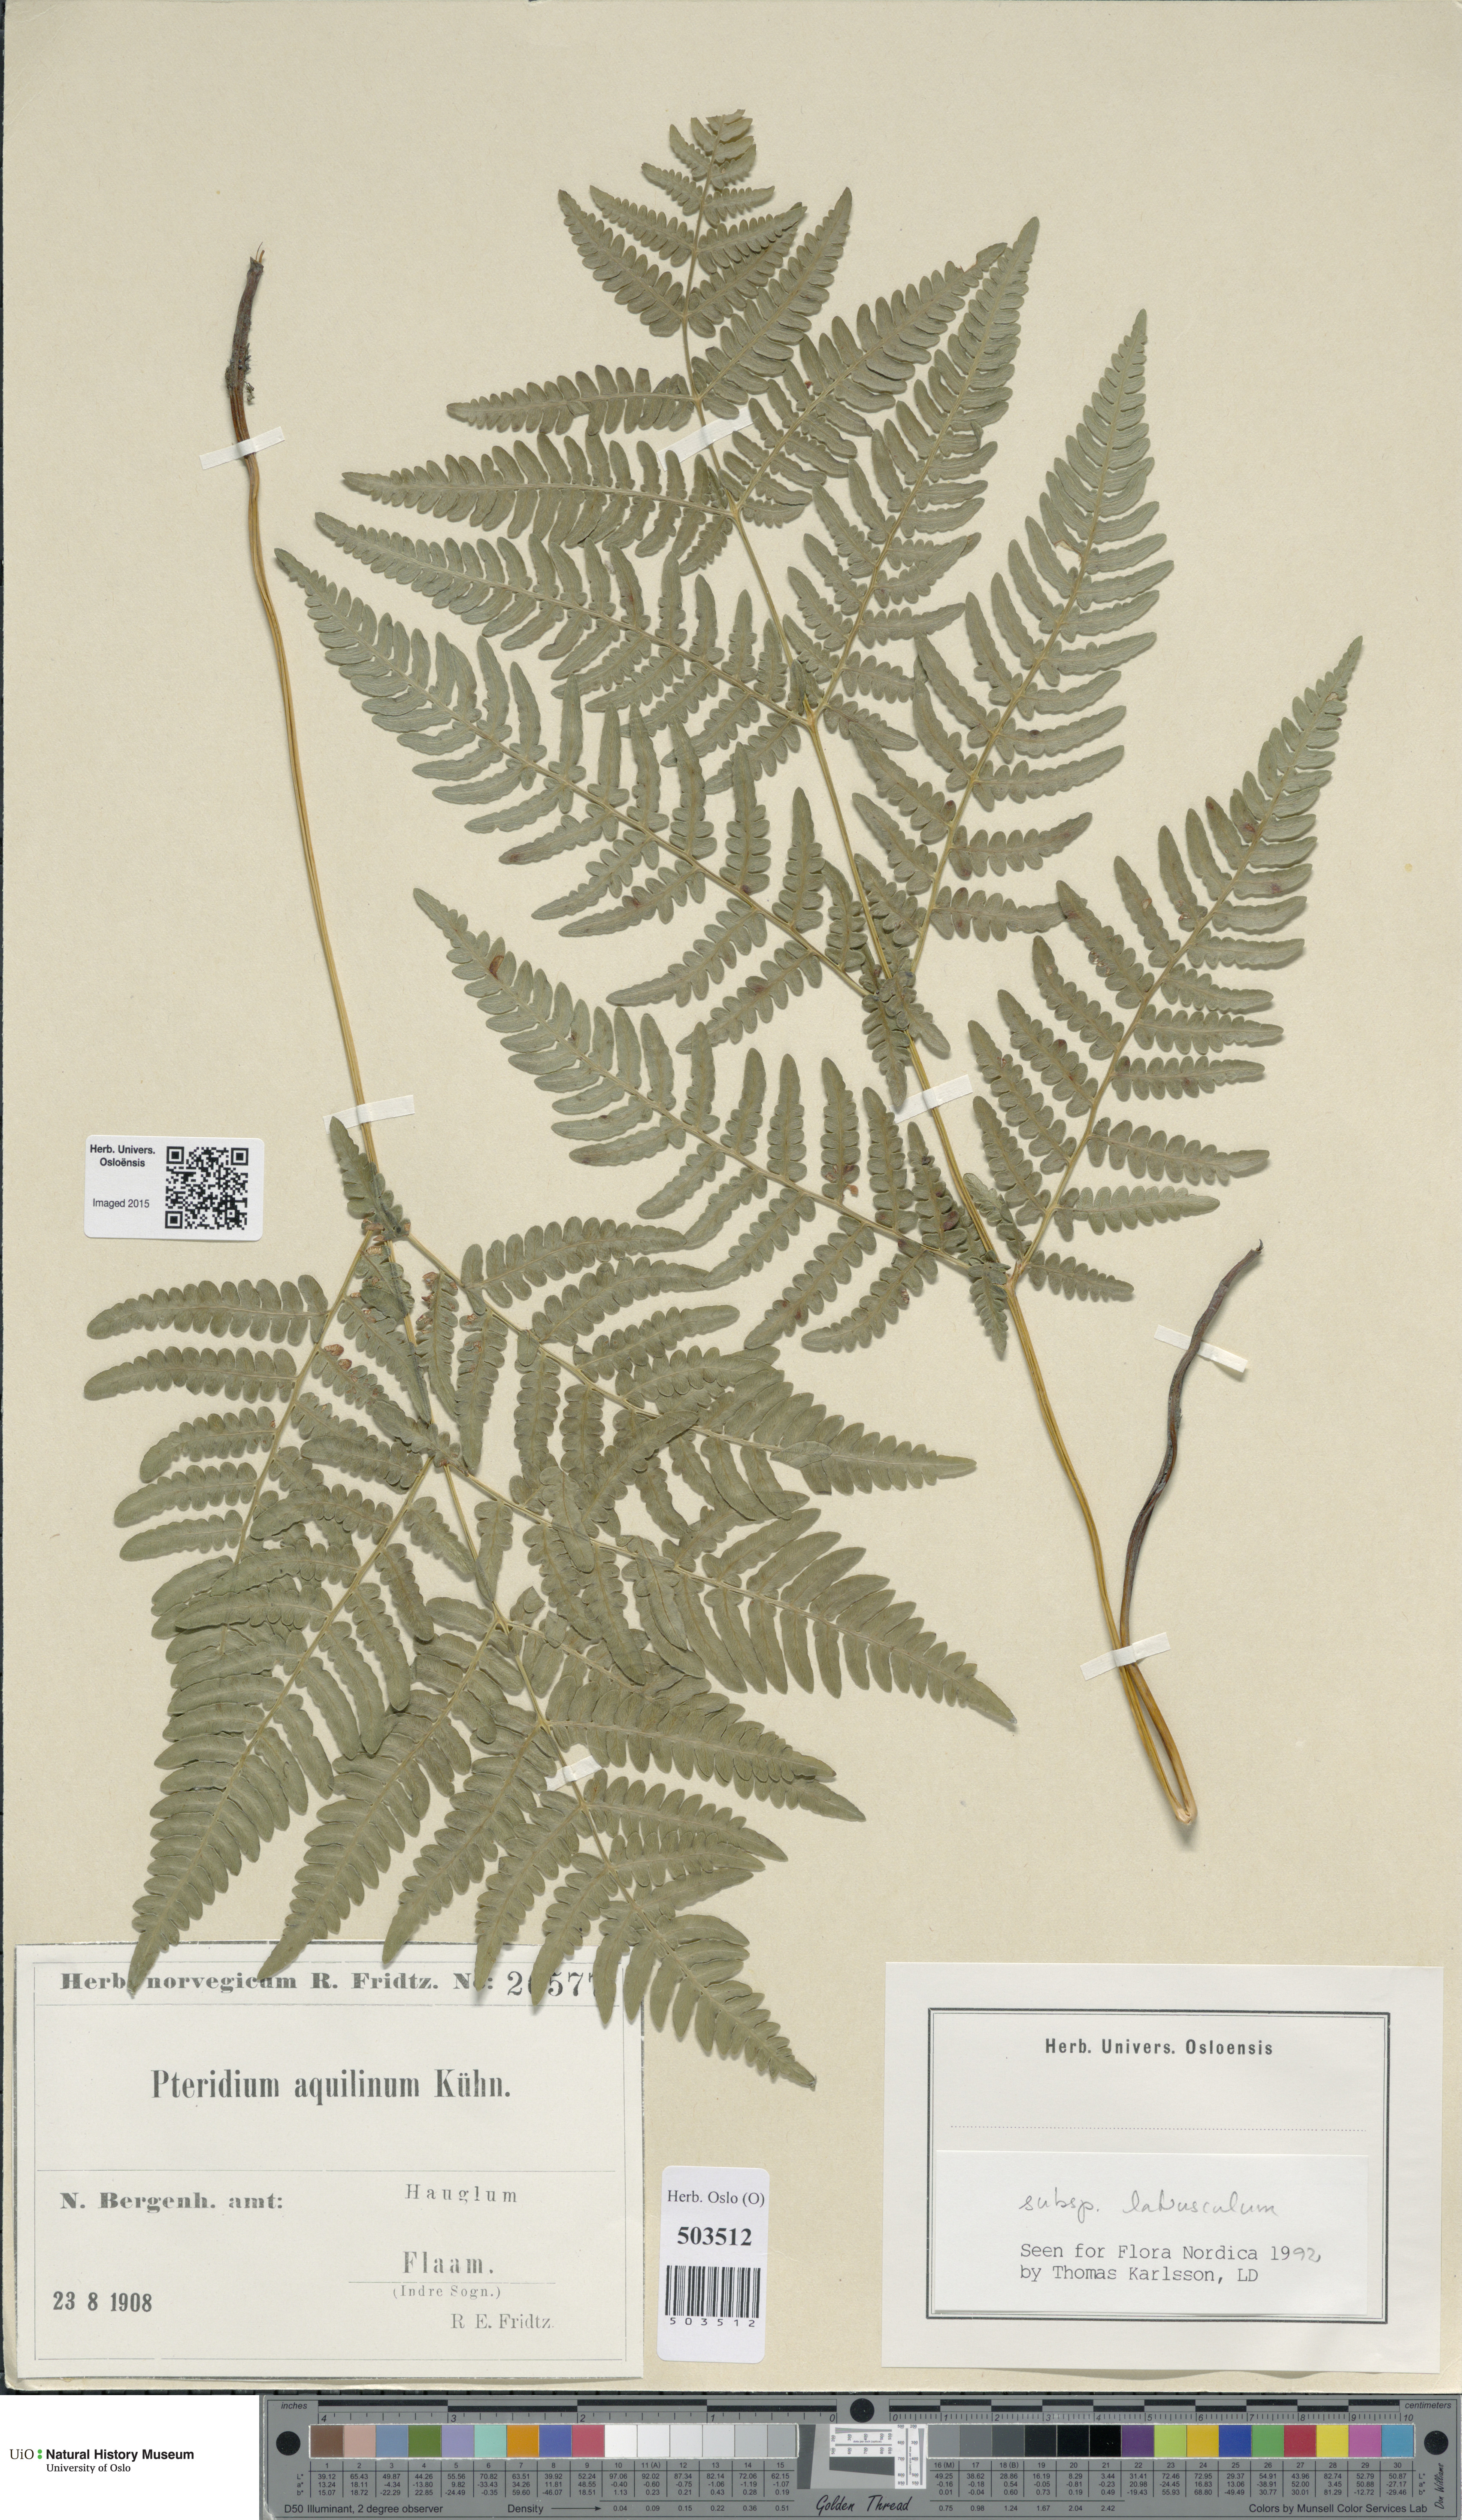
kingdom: Plantae
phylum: Tracheophyta
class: Polypodiopsida
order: Polypodiales
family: Dennstaedtiaceae
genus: Pteridium
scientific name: Pteridium aquilinum
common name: Bracken
